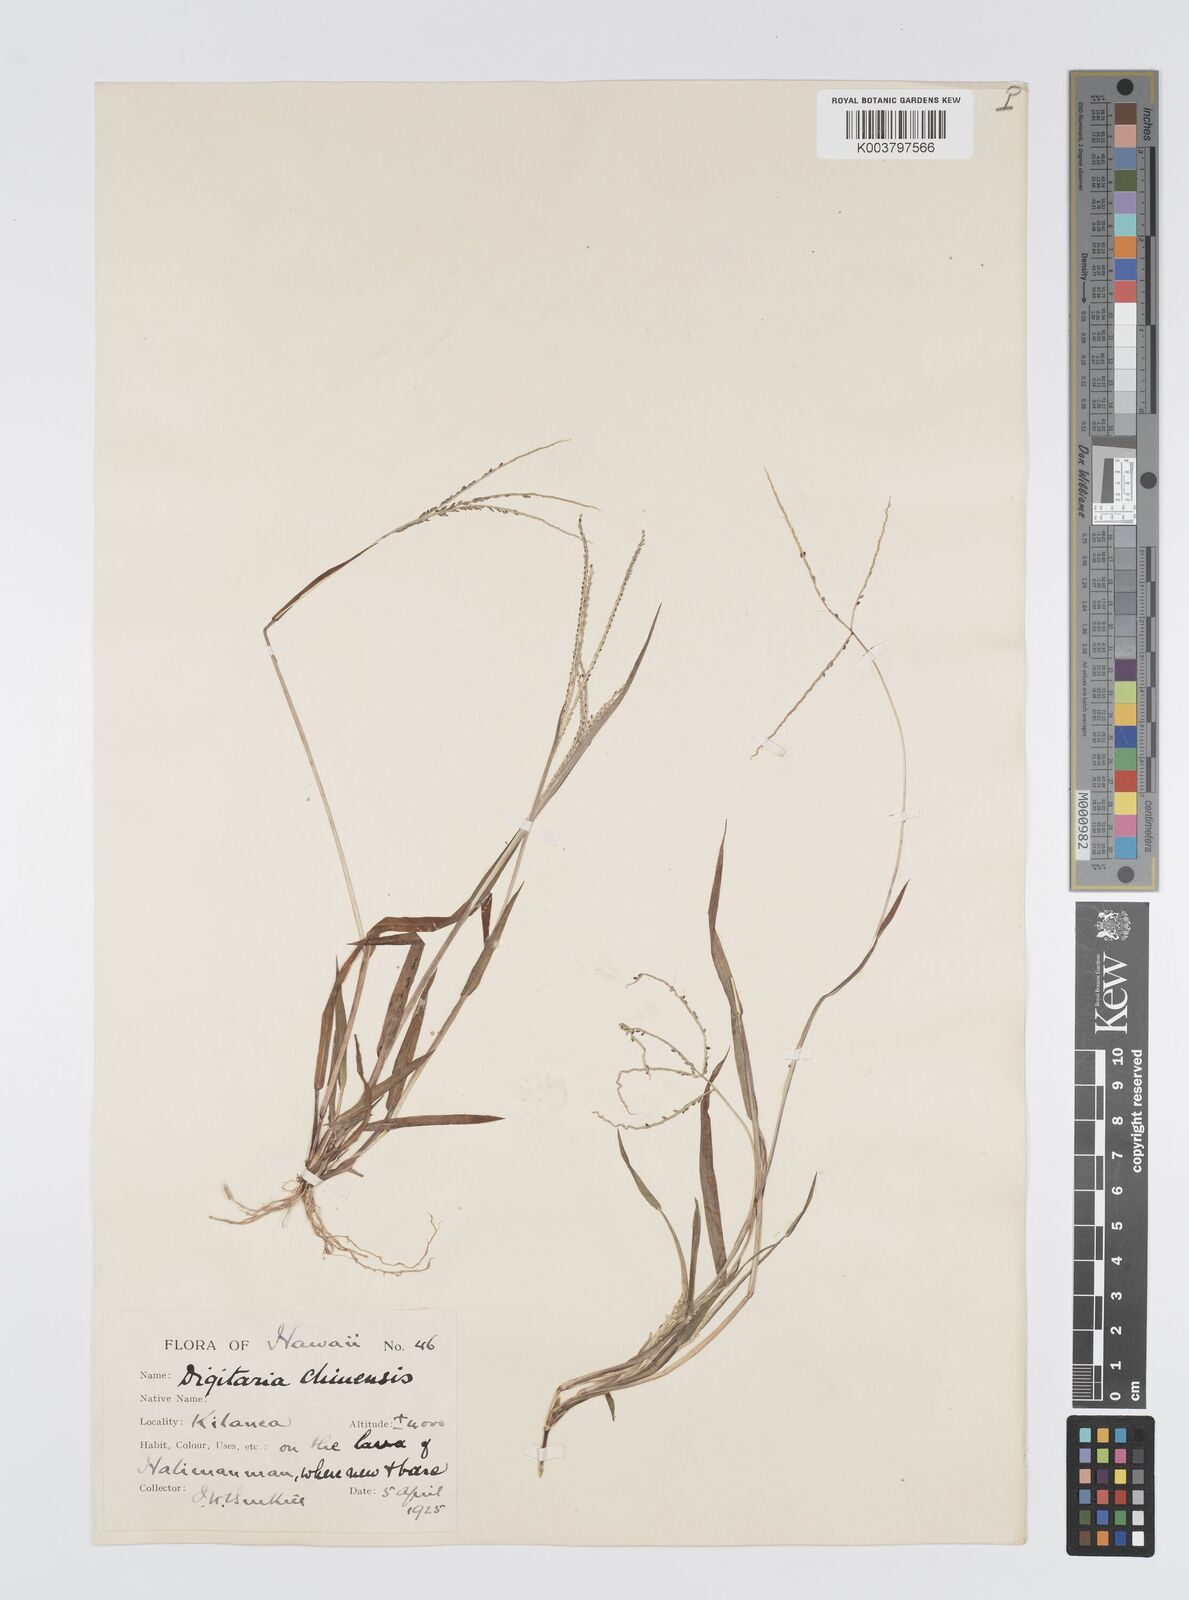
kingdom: Plantae
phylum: Tracheophyta
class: Liliopsida
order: Poales
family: Poaceae
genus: Digitaria
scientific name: Digitaria violascens
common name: Violet crabgrass
